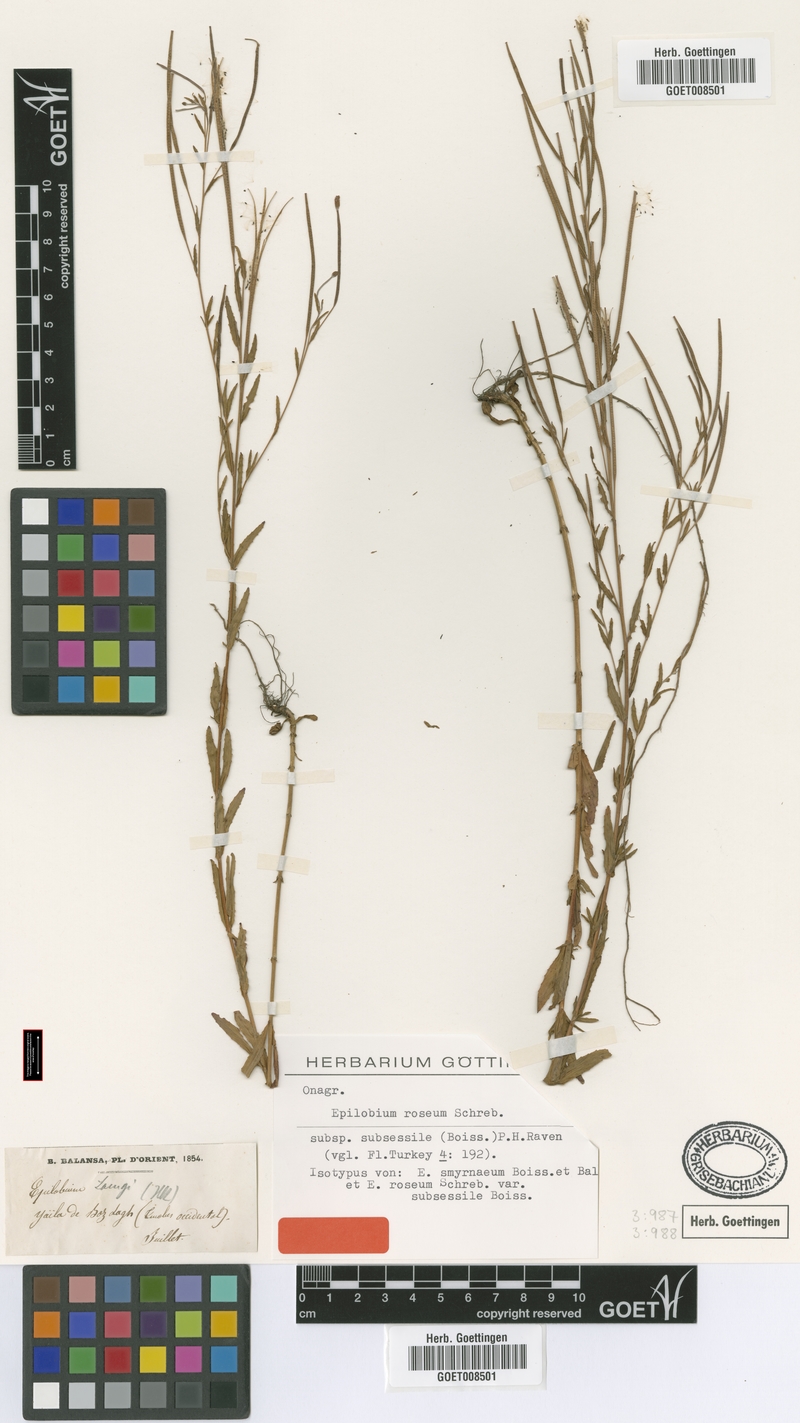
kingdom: Plantae
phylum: Tracheophyta
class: Magnoliopsida
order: Myrtales
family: Onagraceae
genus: Epilobium
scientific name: Epilobium roseum
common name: Pale willowherb
